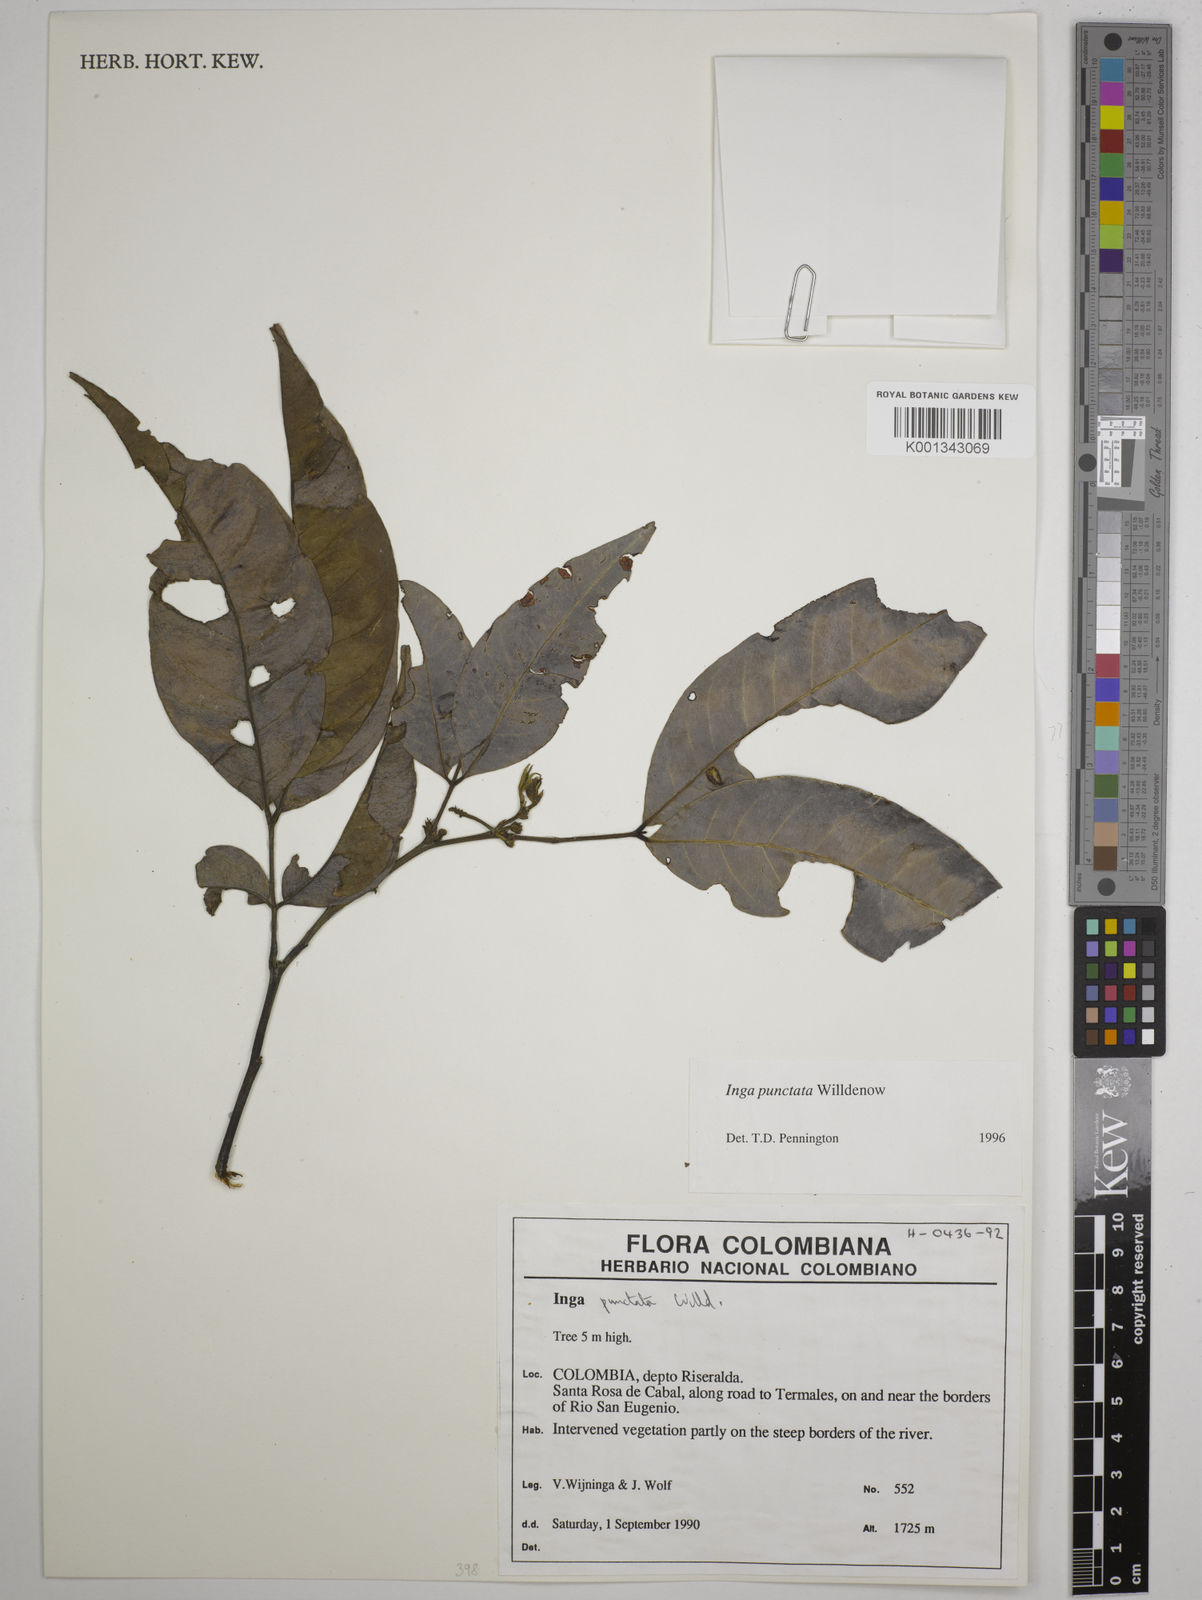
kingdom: Plantae
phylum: Tracheophyta
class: Magnoliopsida
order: Fabales
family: Fabaceae
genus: Inga
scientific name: Inga punctata
